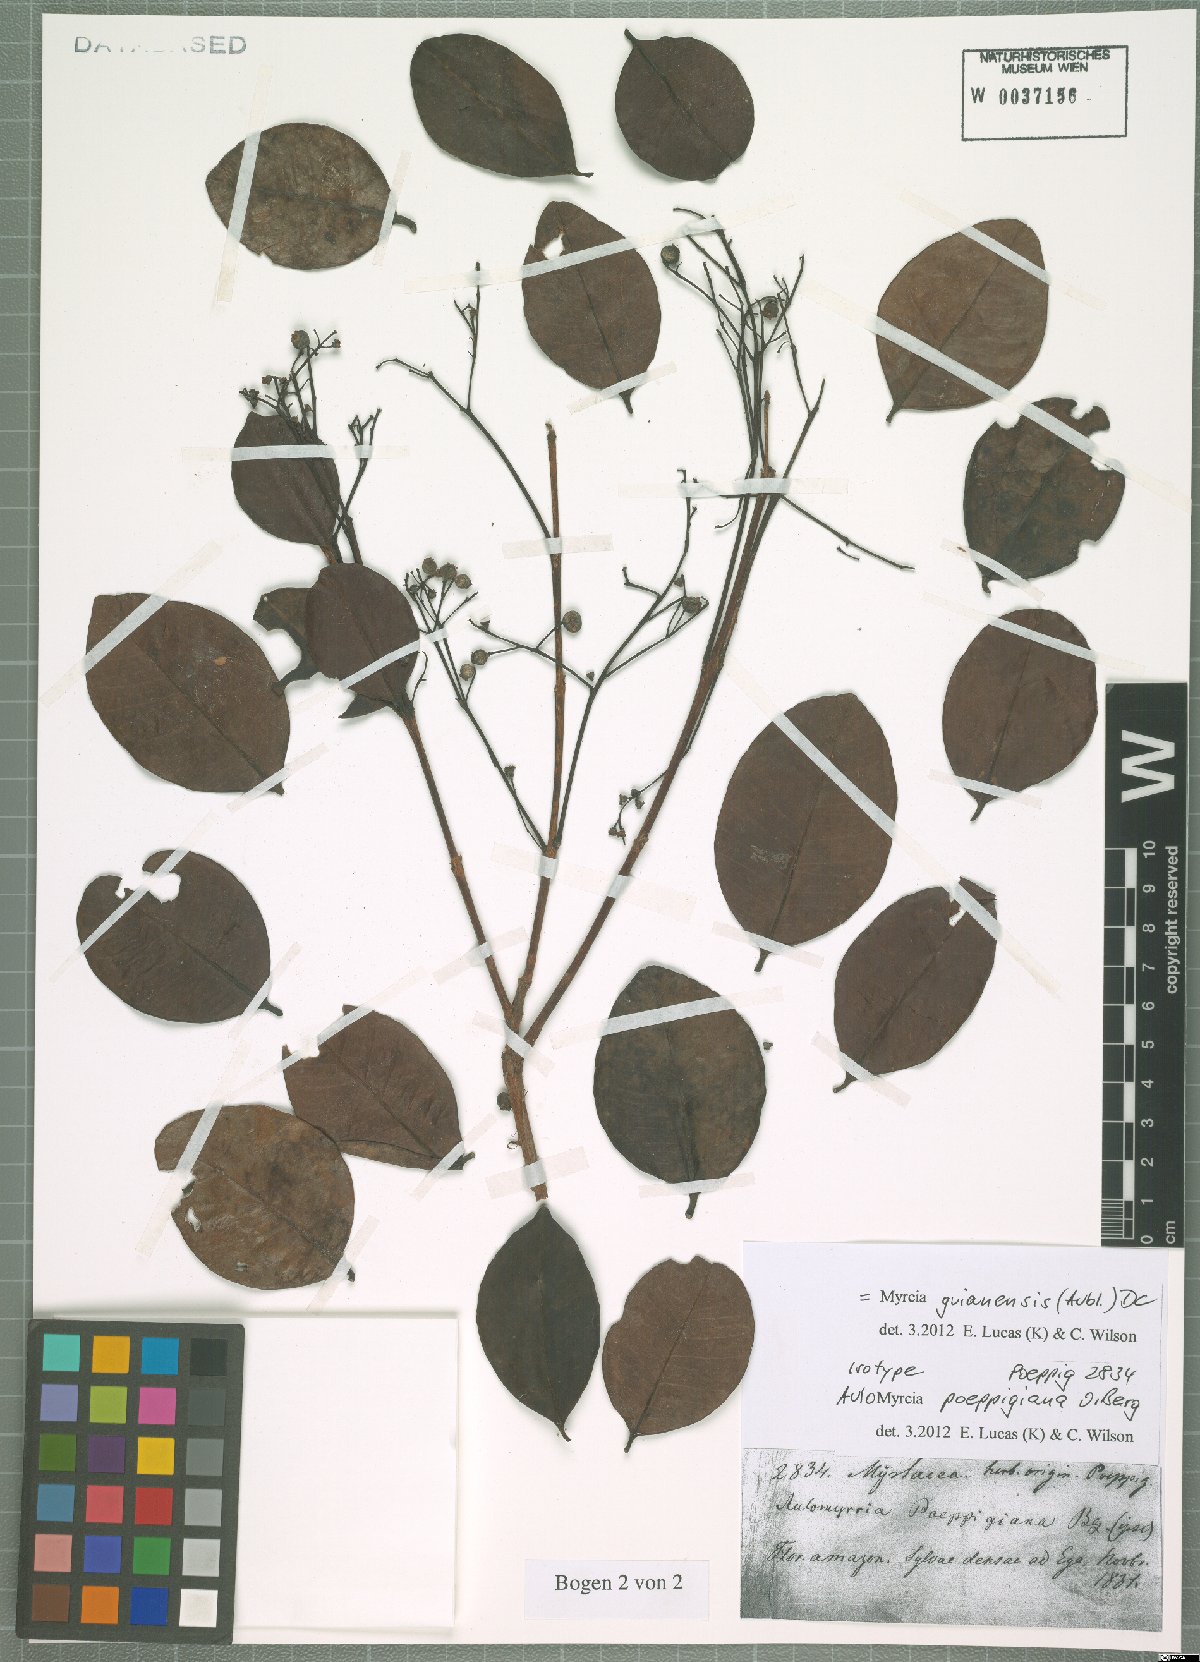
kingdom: Plantae
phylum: Tracheophyta
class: Magnoliopsida
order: Myrtales
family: Myrtaceae
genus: Myrcia
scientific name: Myrcia guianensis
